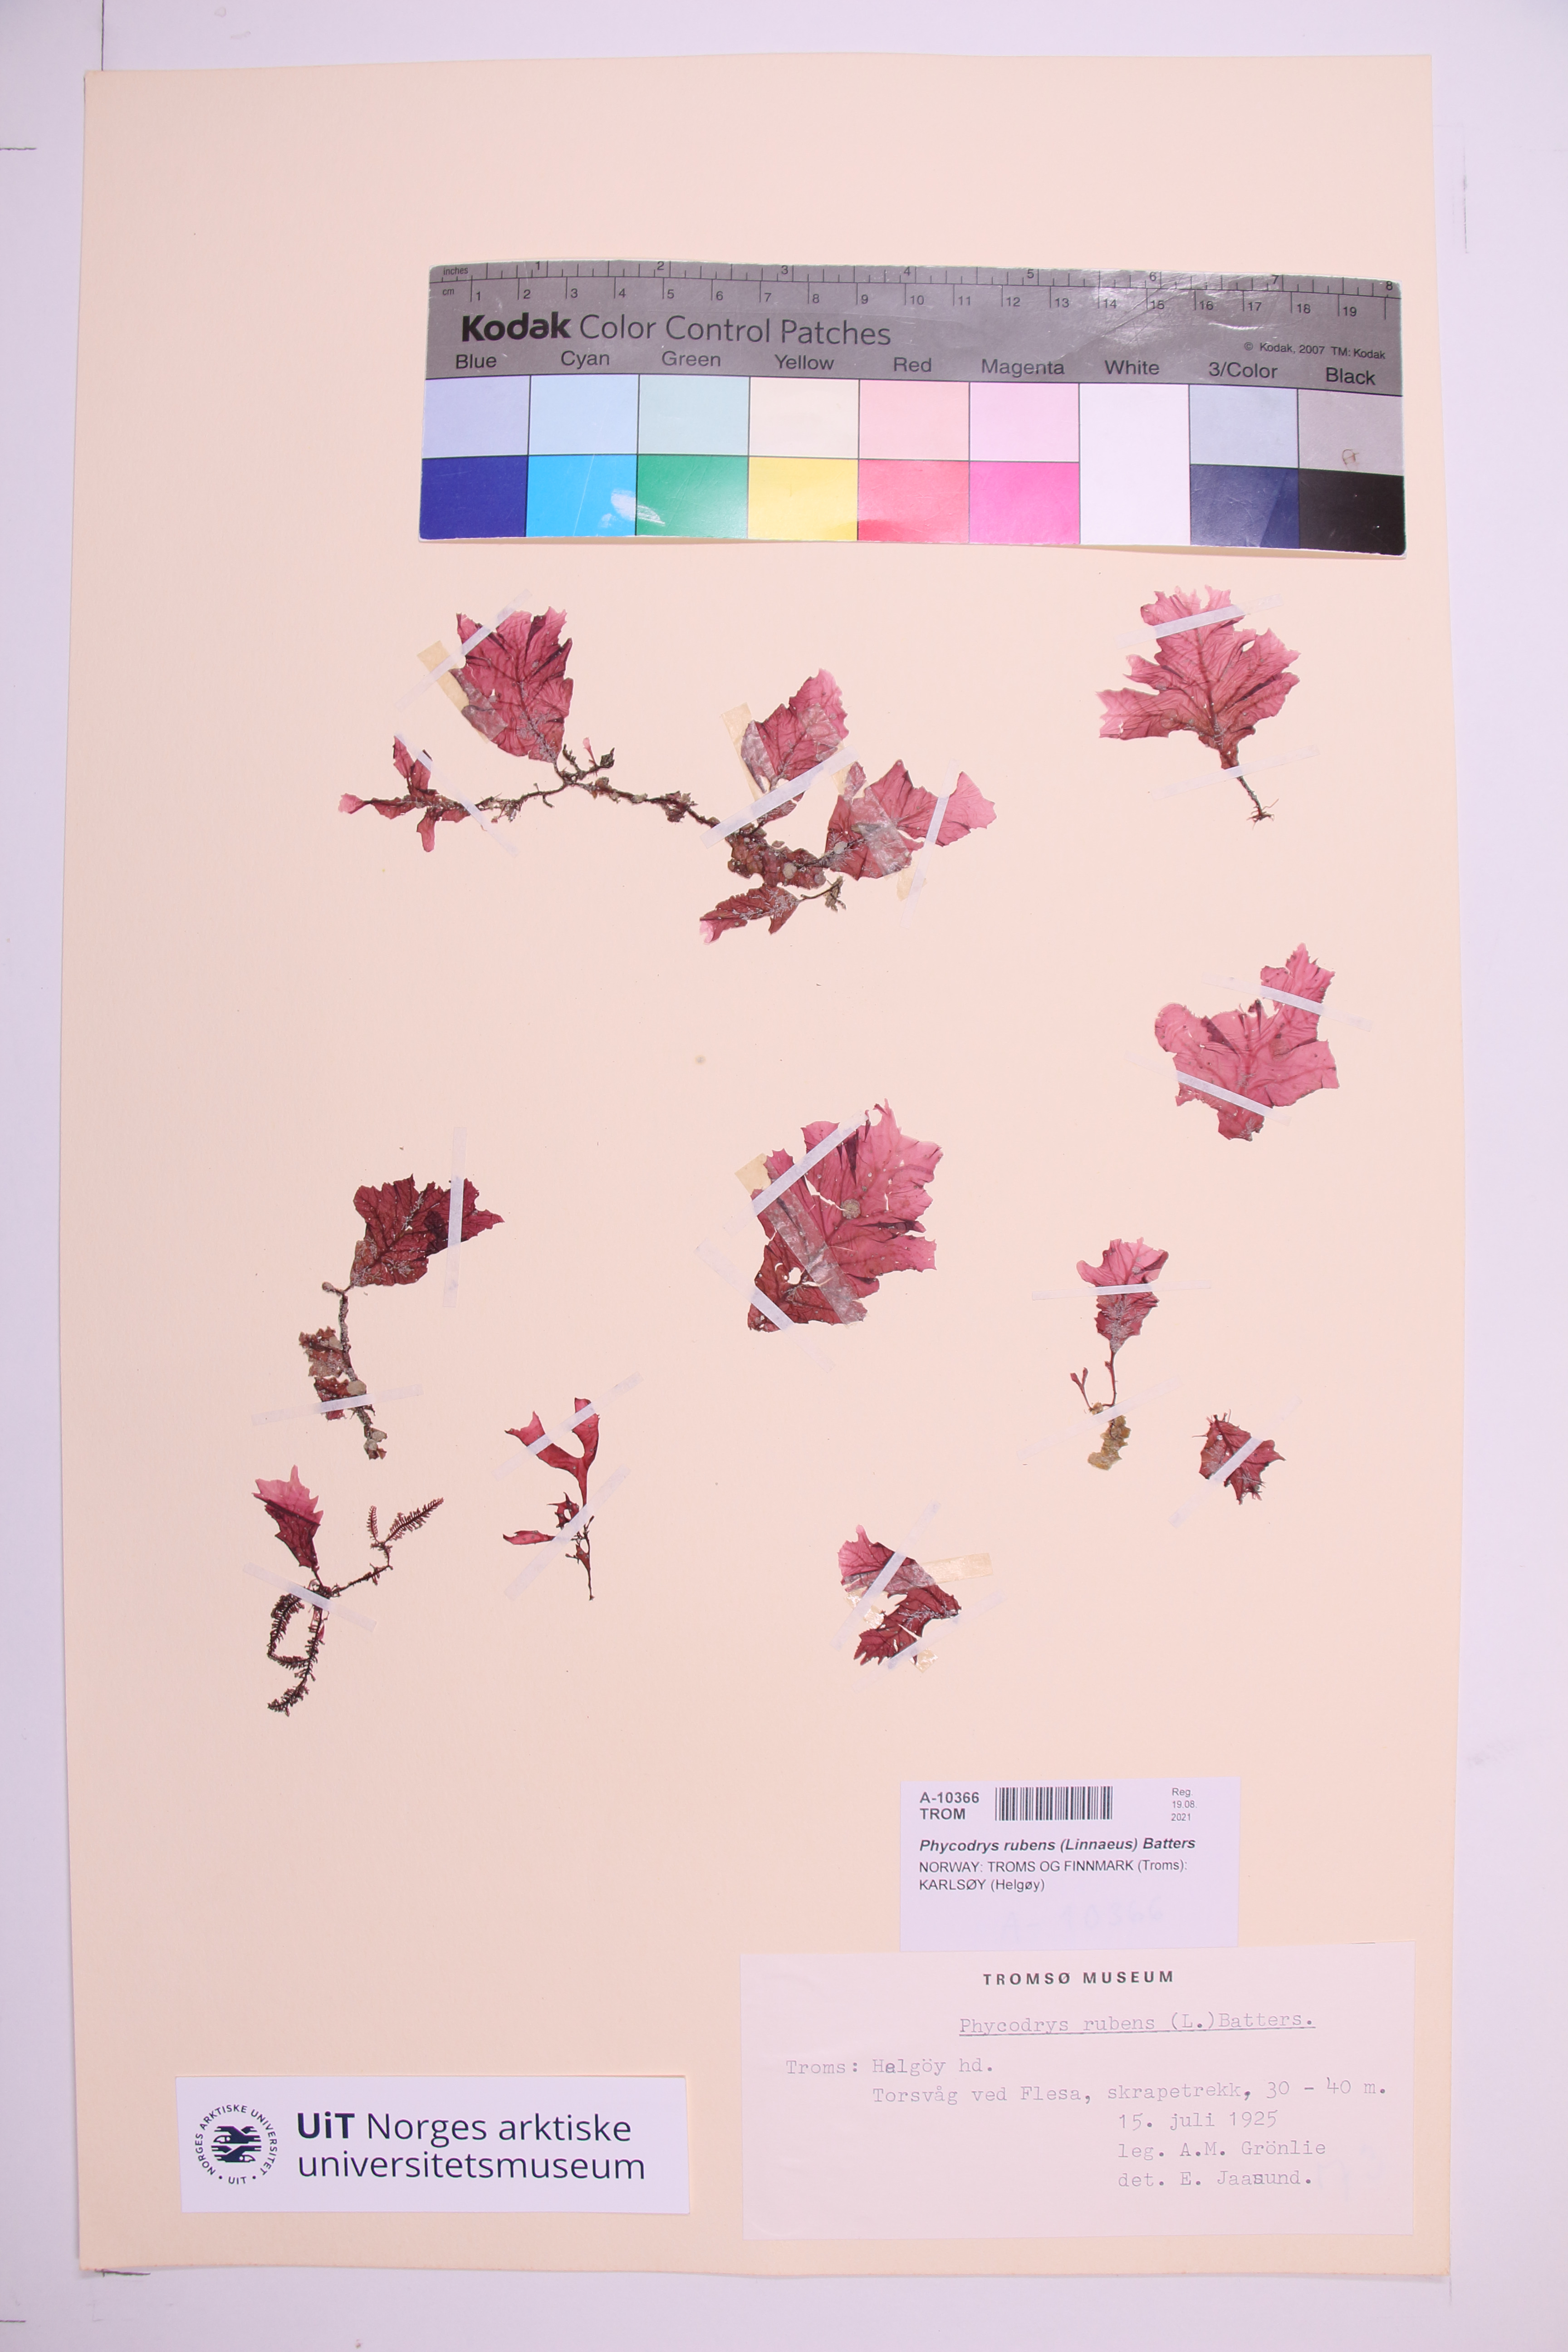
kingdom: Plantae
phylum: Rhodophyta
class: Florideophyceae
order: Ceramiales
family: Delesseriaceae
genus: Phycodrys
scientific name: Phycodrys rubens
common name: Sea oak
